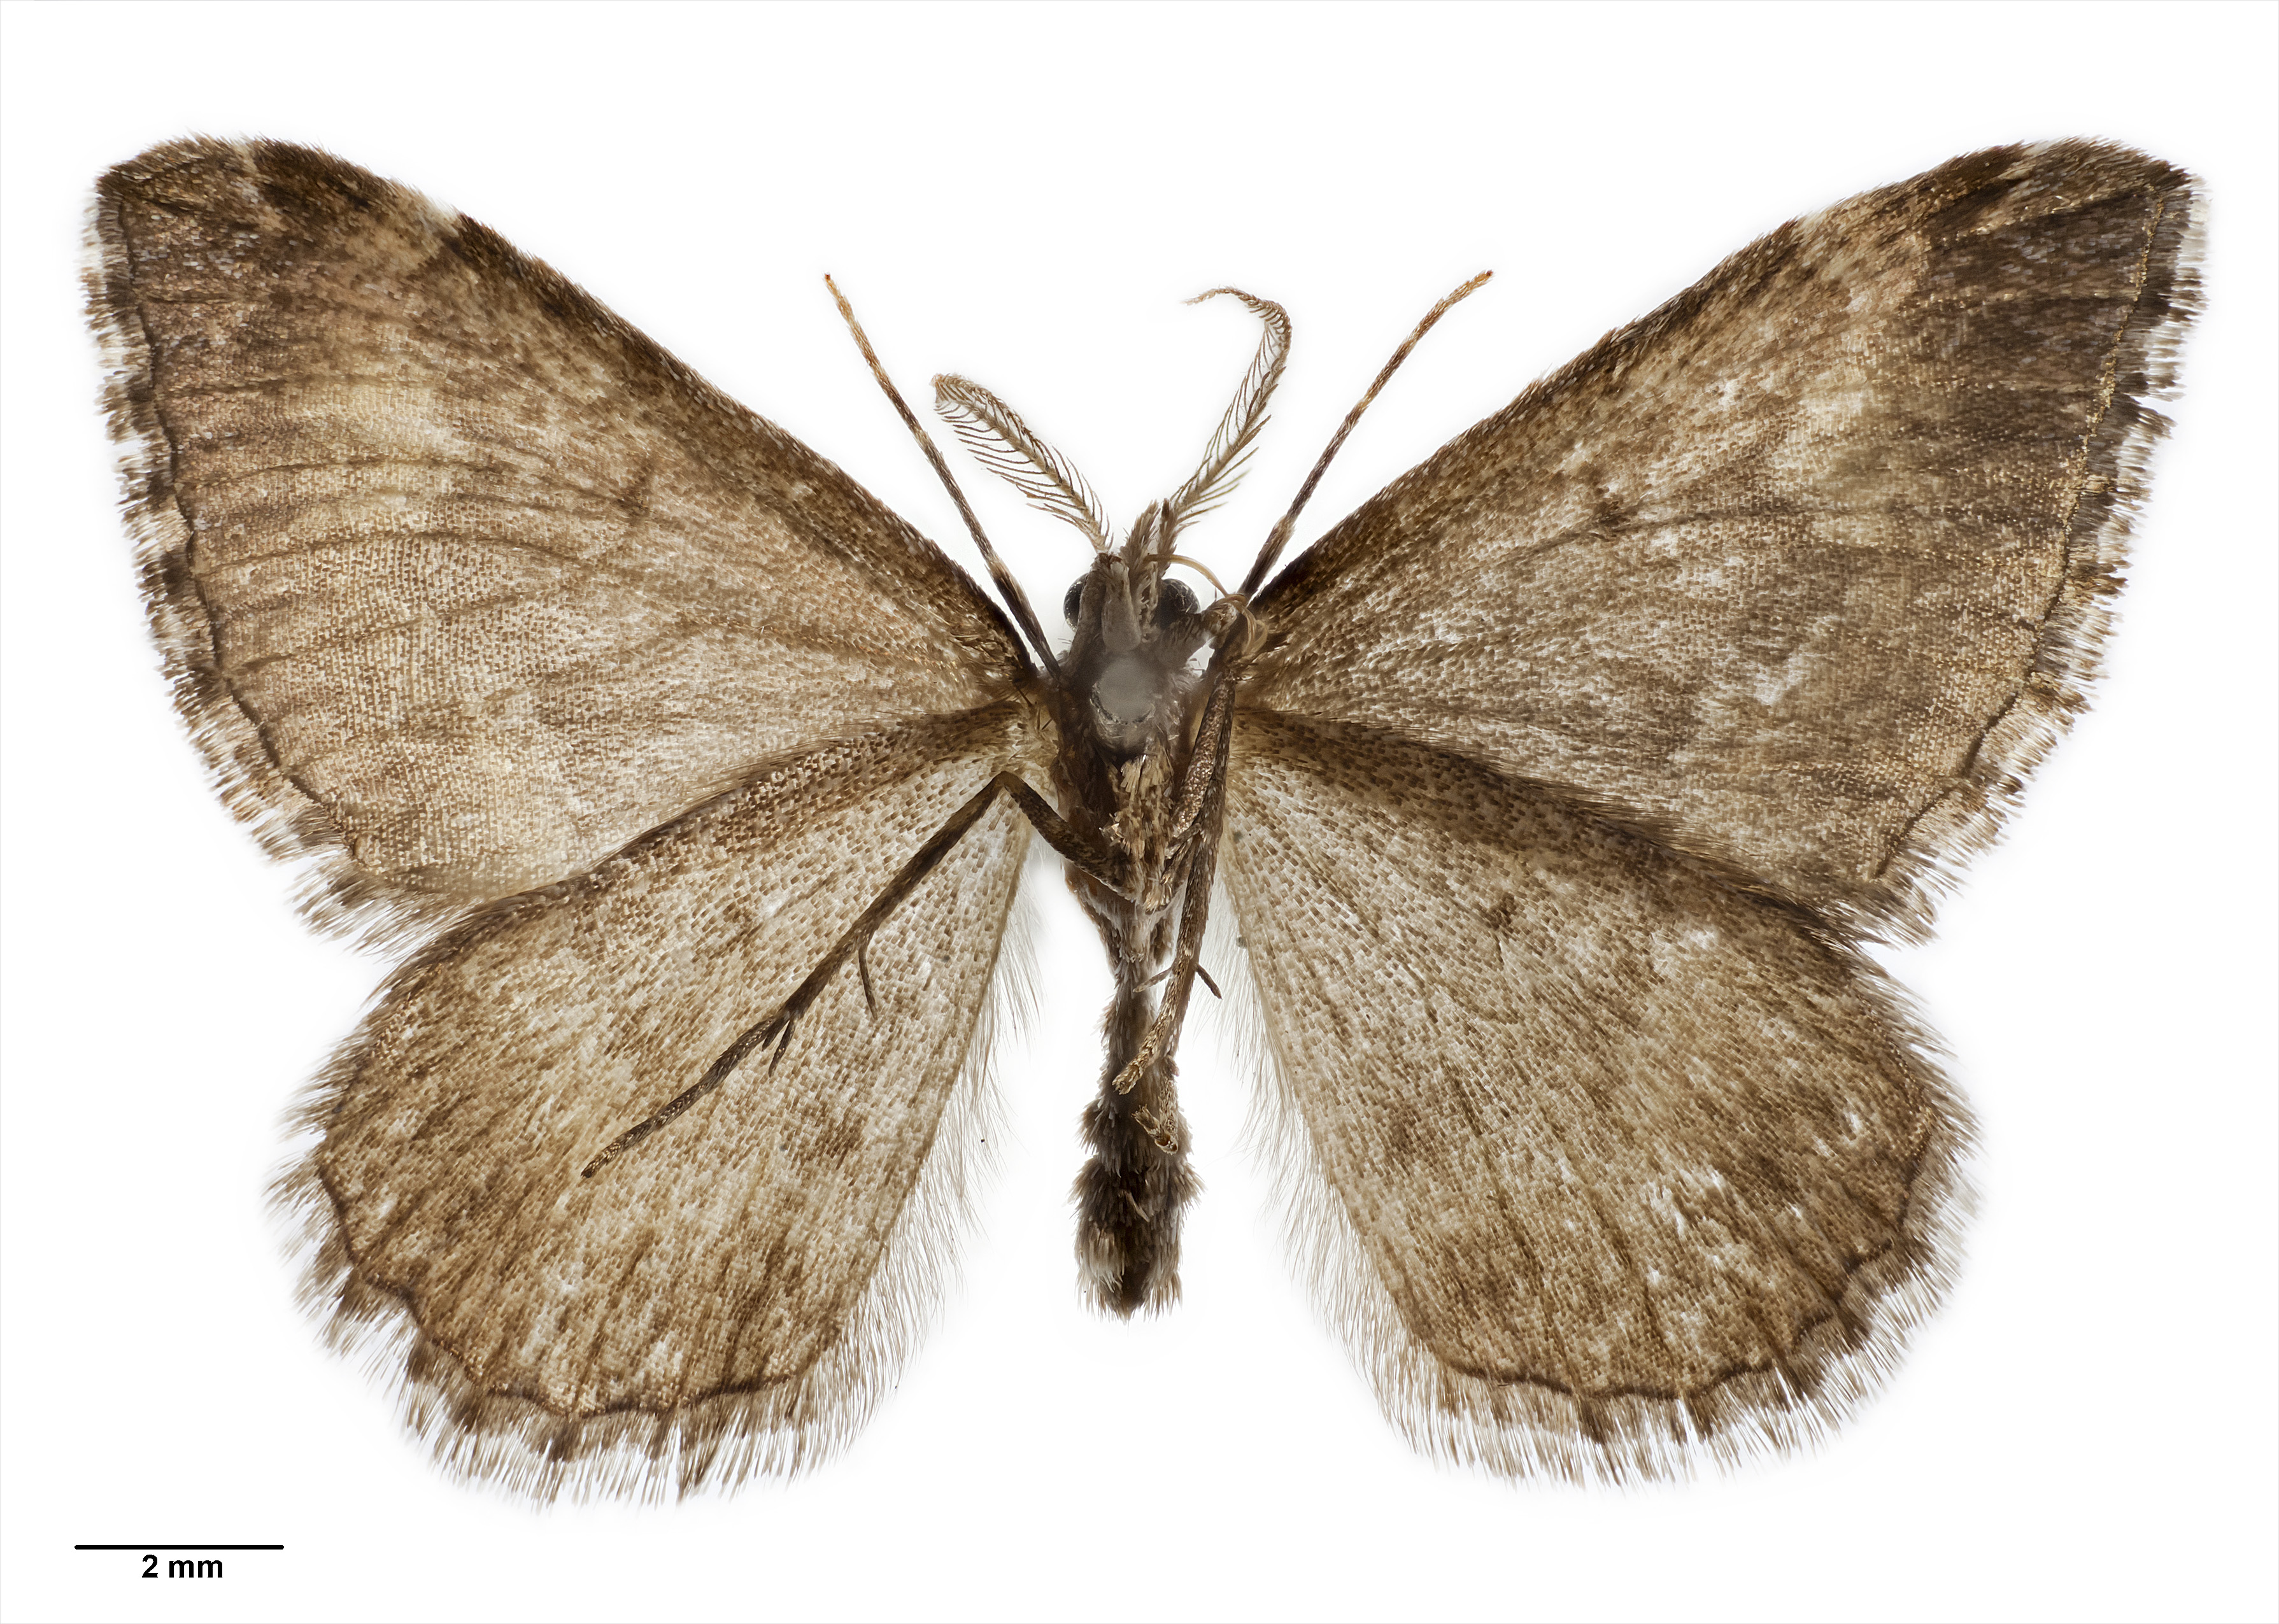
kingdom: Animalia
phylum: Arthropoda
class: Insecta
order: Lepidoptera
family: Geometridae
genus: Asaphodes
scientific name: Asaphodes ida
